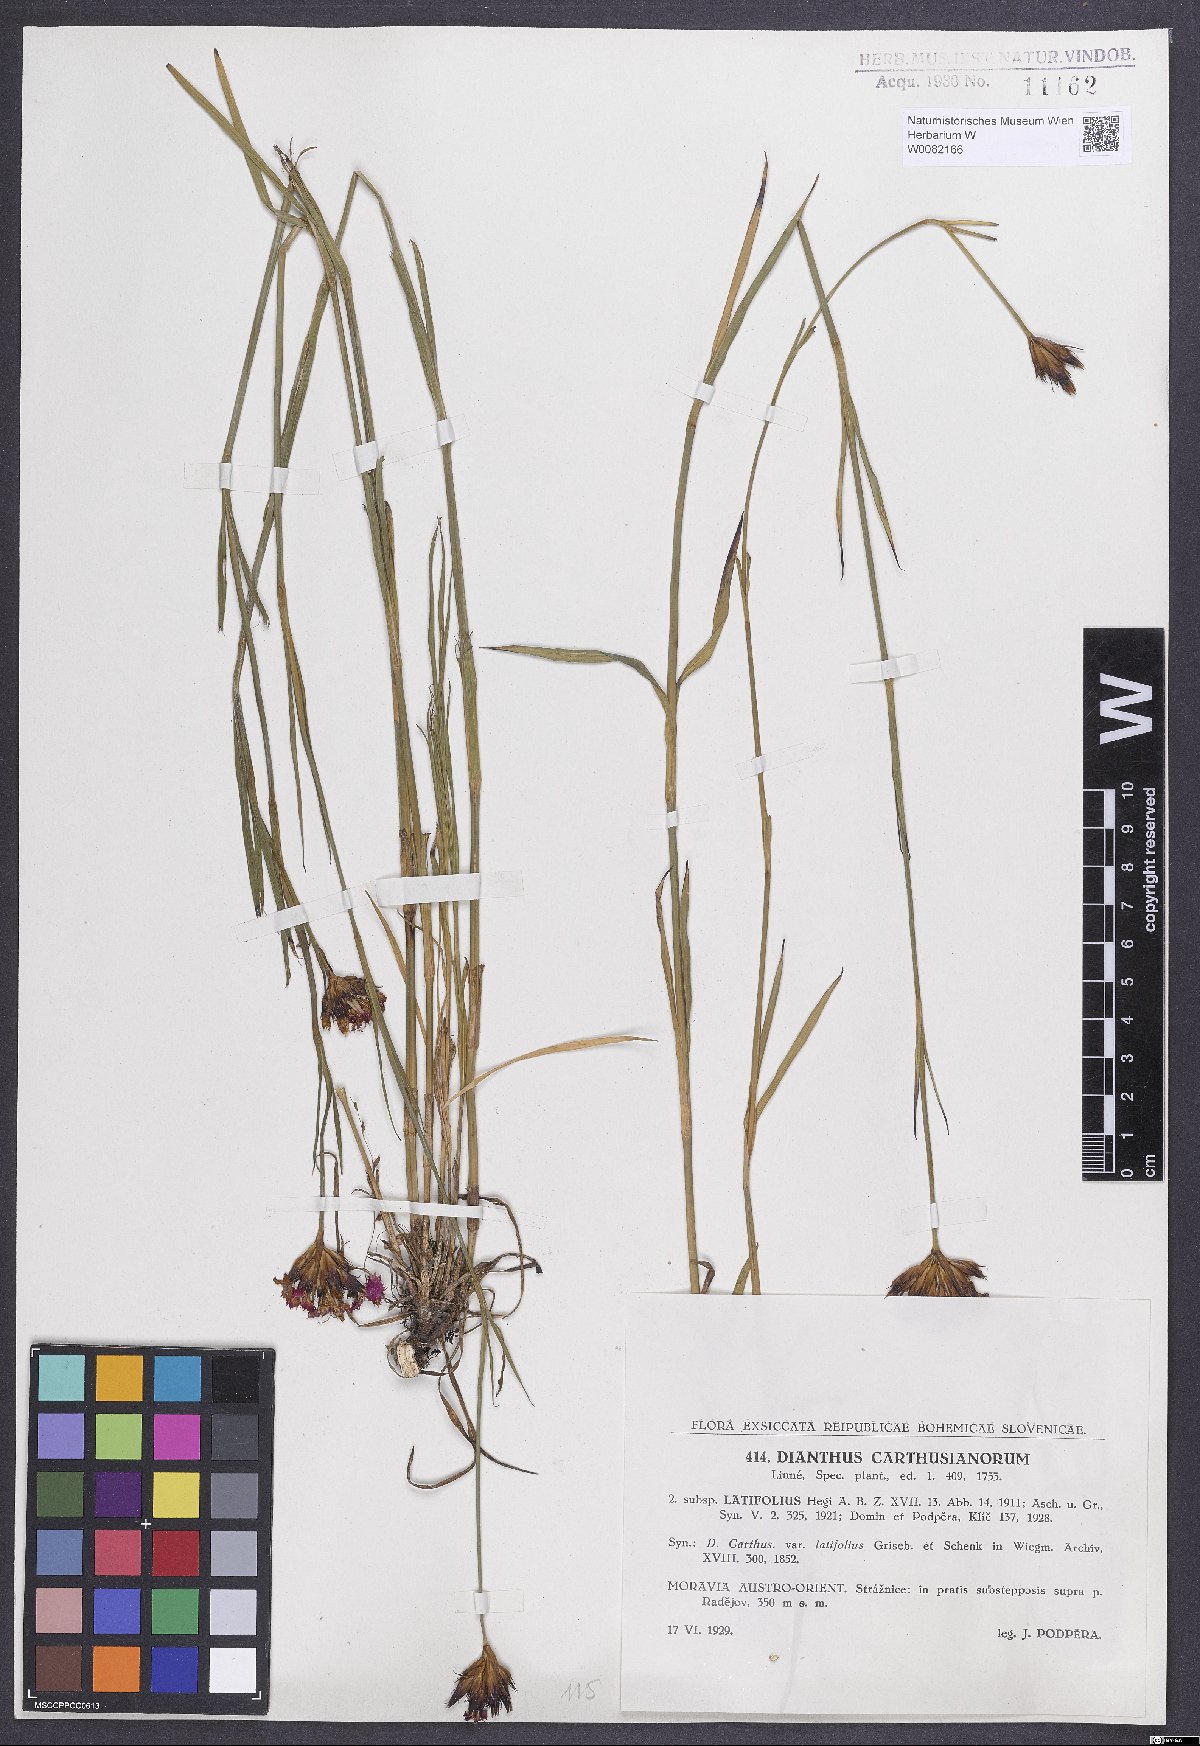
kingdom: Plantae
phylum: Tracheophyta
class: Magnoliopsida
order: Caryophyllales
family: Caryophyllaceae
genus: Dianthus
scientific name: Dianthus carthusianorum
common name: Carthusian pink
